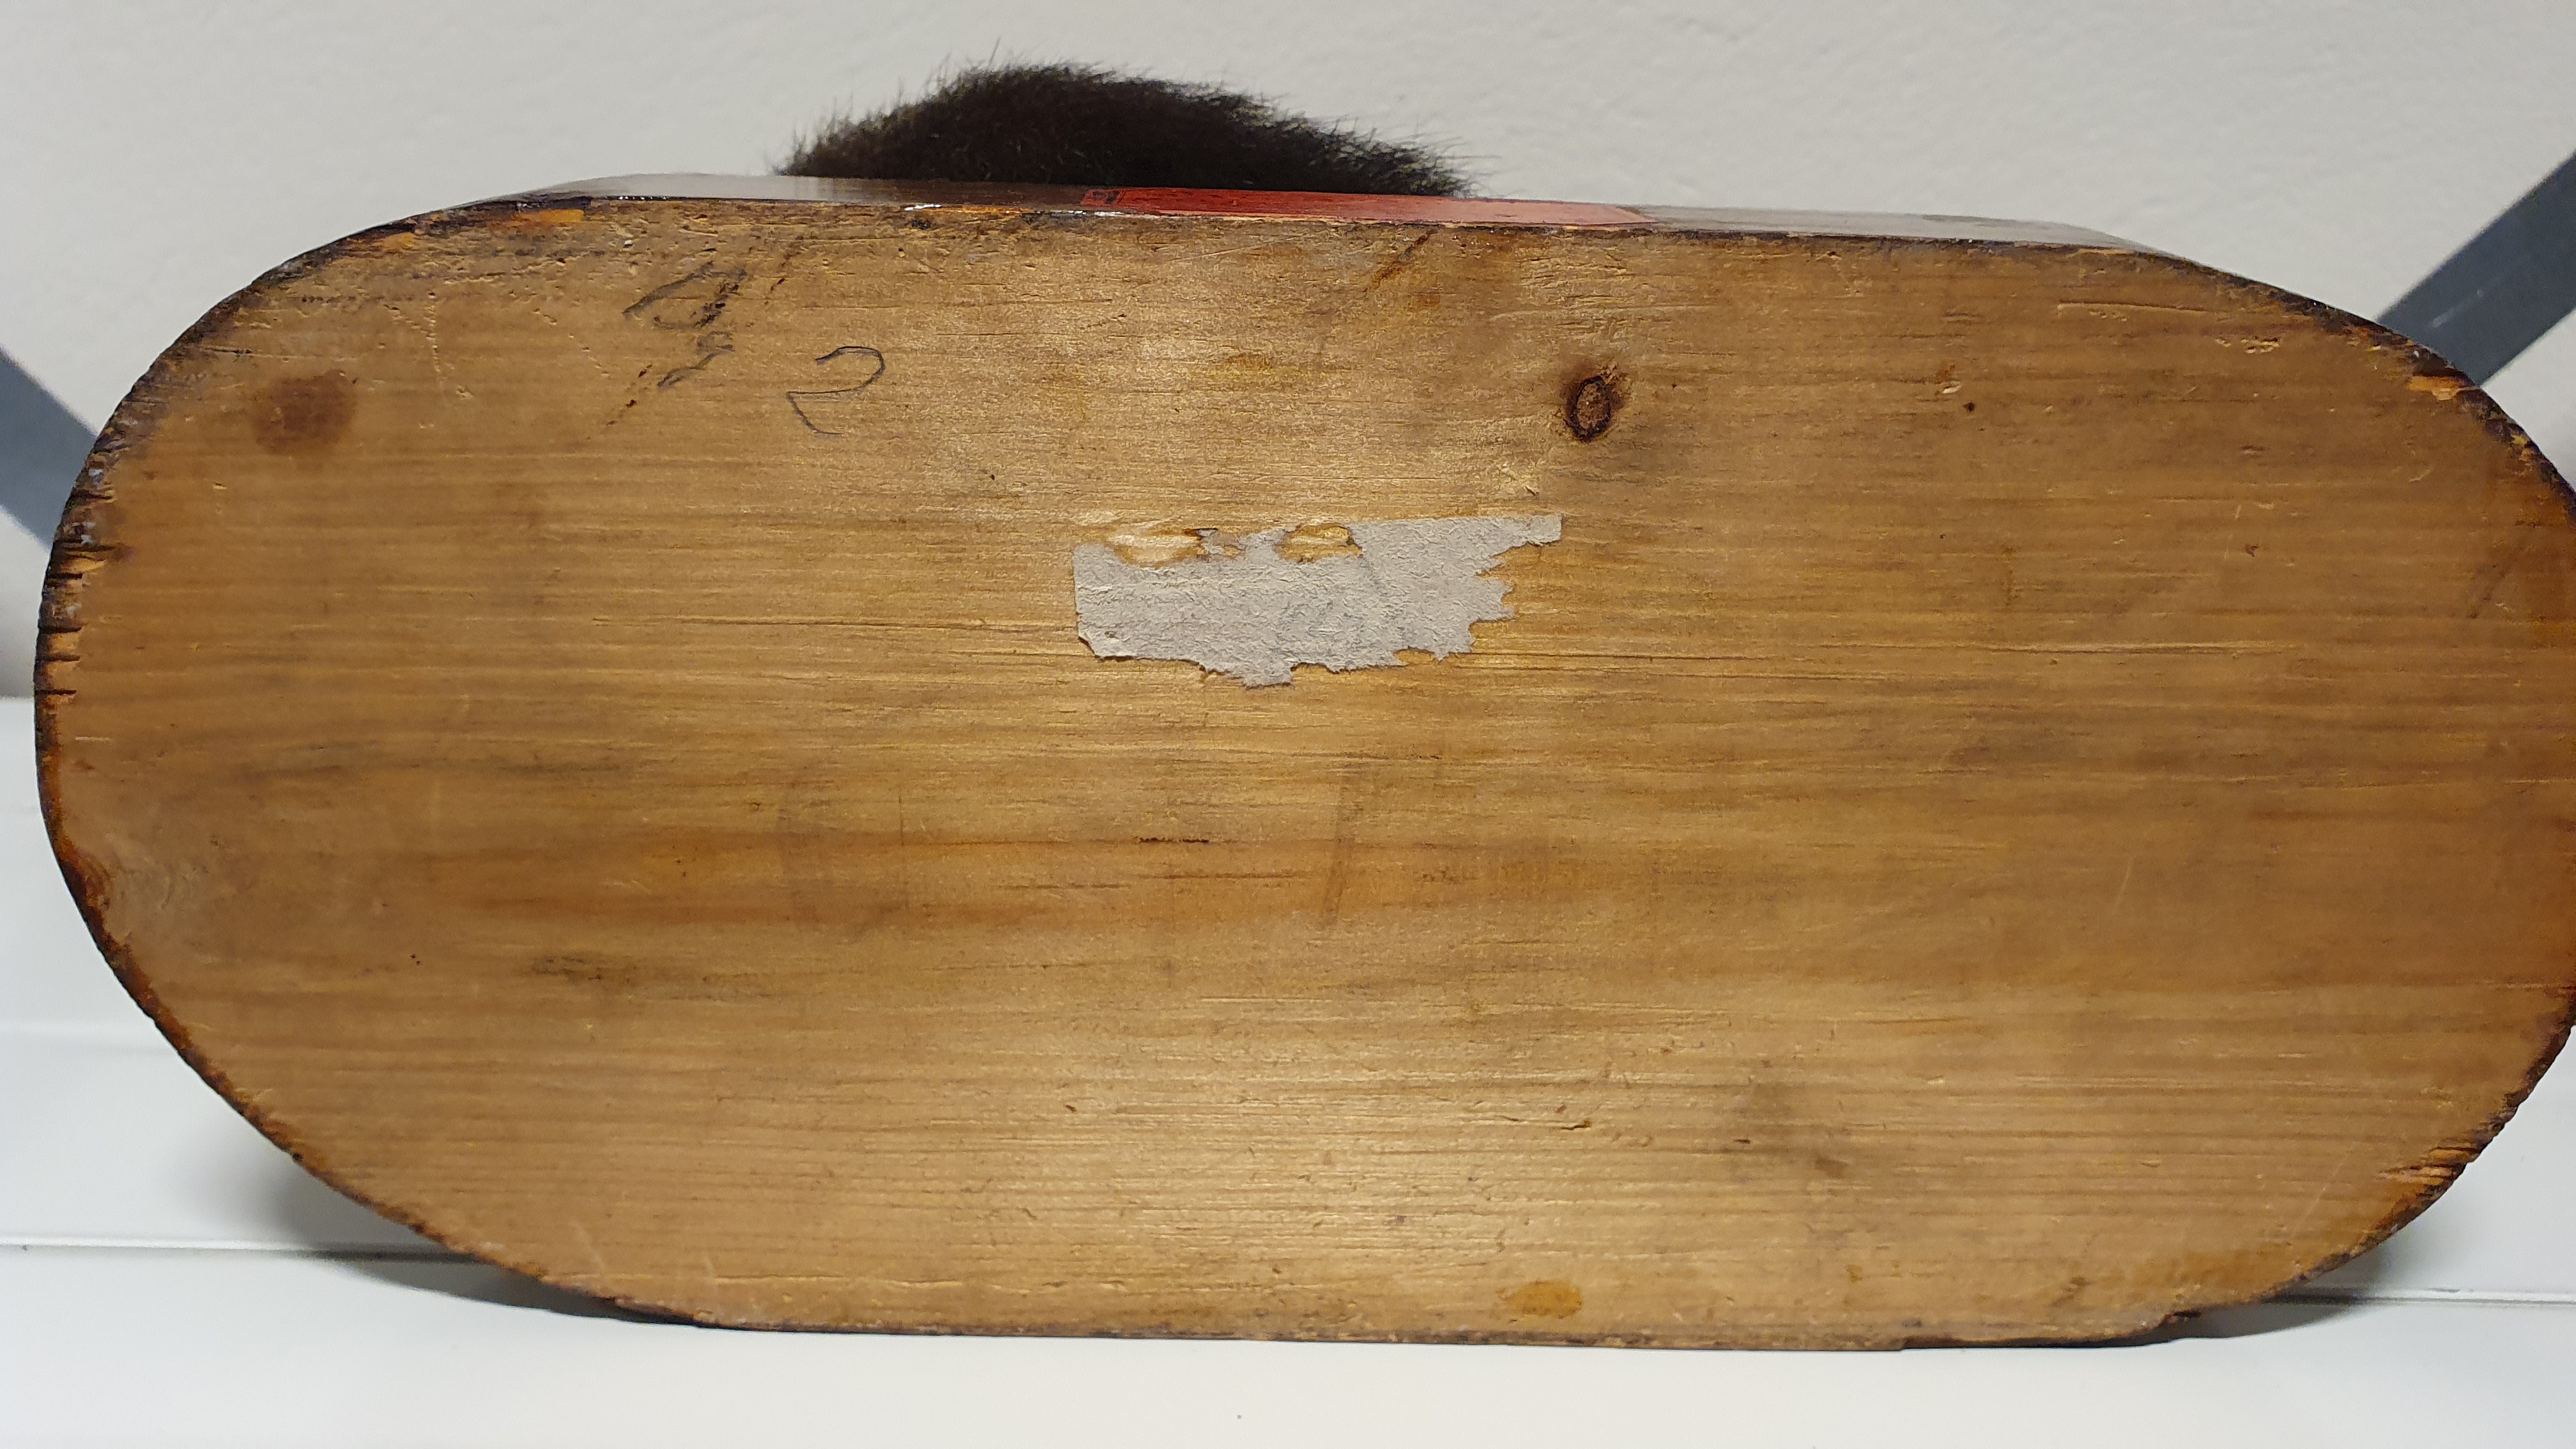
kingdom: Animalia
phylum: Chordata
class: Mammalia
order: Diprotodontia
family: Phalangeridae
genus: Trichosurus
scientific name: Trichosurus arnhemensis
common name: Northern brushtail
